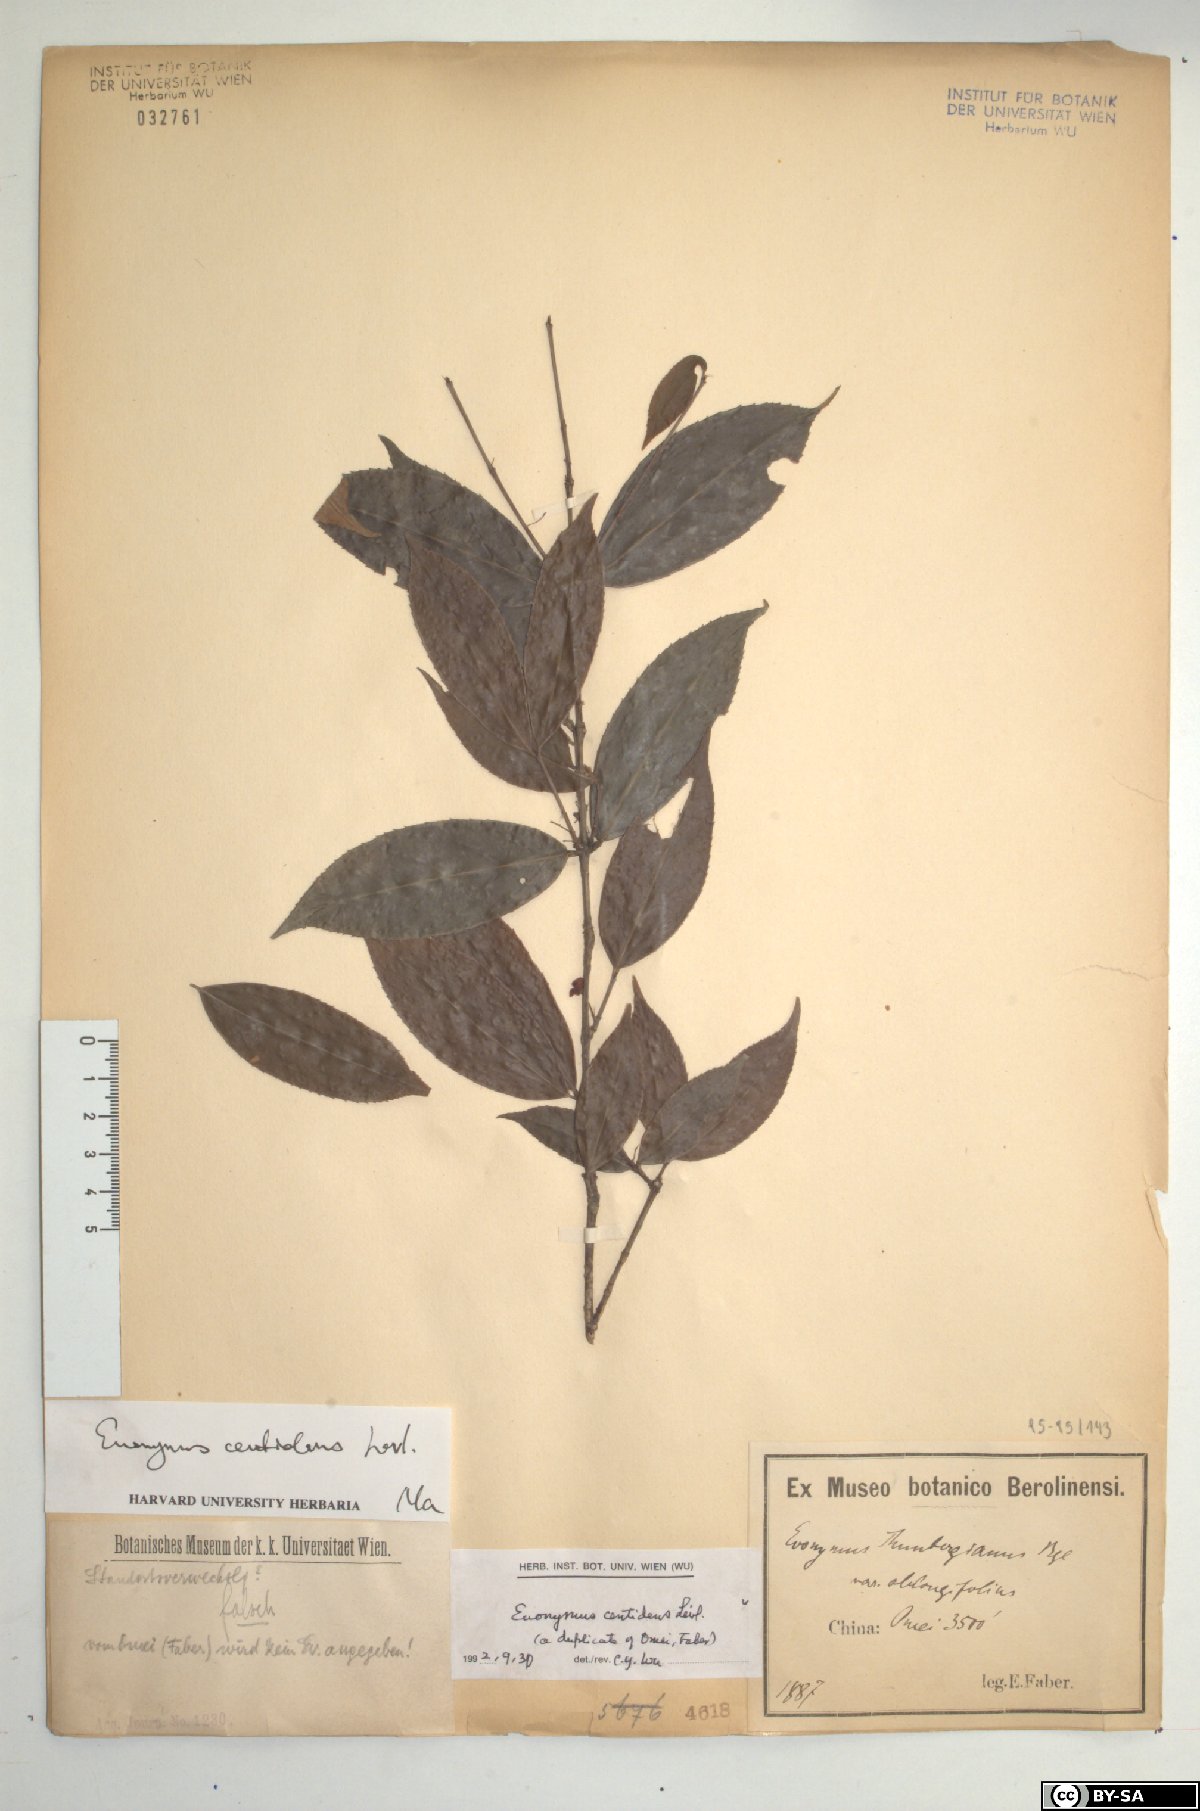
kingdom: Plantae
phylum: Tracheophyta
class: Magnoliopsida
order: Celastrales
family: Celastraceae
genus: Euonymus
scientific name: Euonymus centidens
